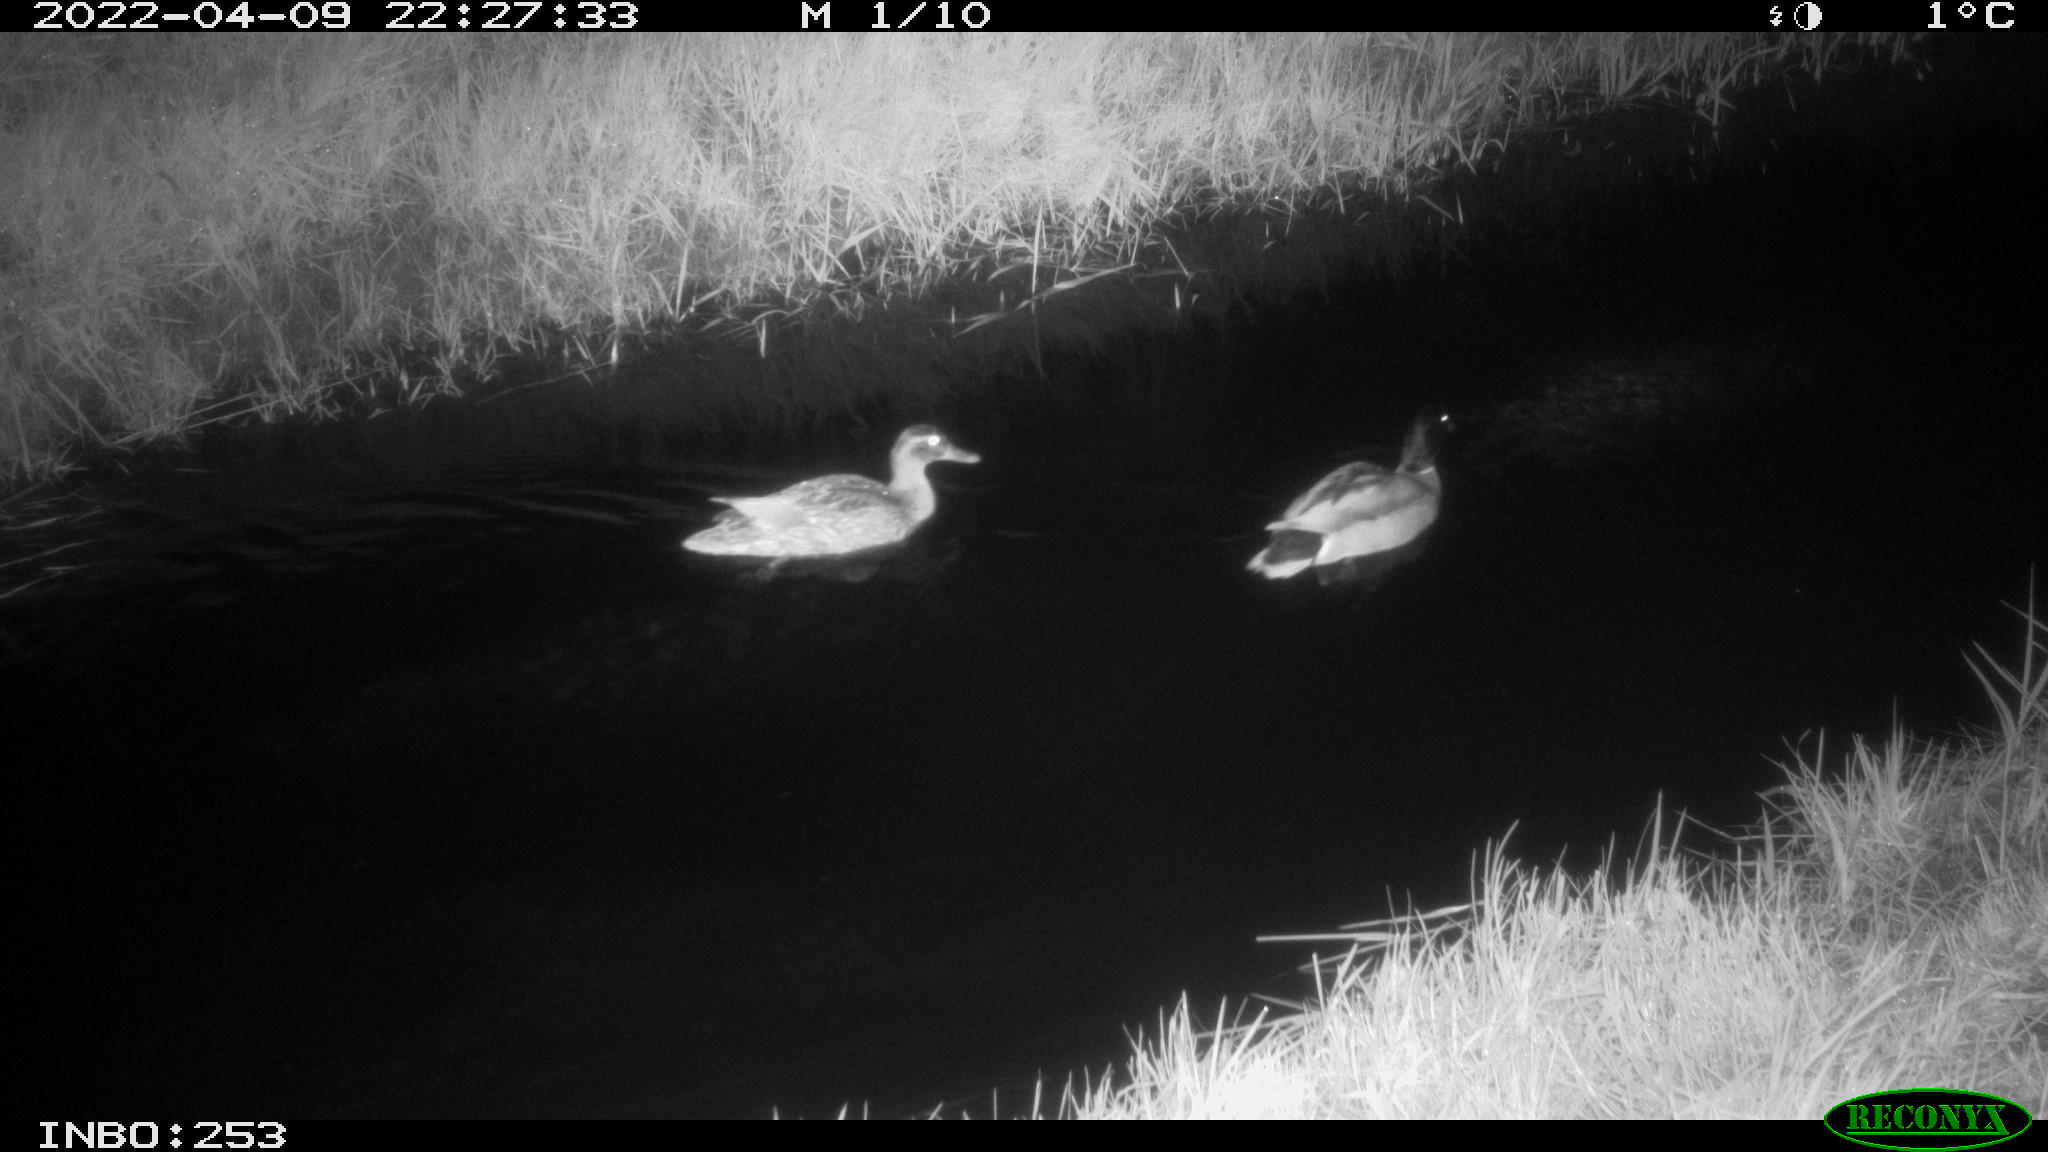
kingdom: Animalia
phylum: Chordata
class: Aves
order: Anseriformes
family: Anatidae
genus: Anas
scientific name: Anas platyrhynchos
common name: Mallard
